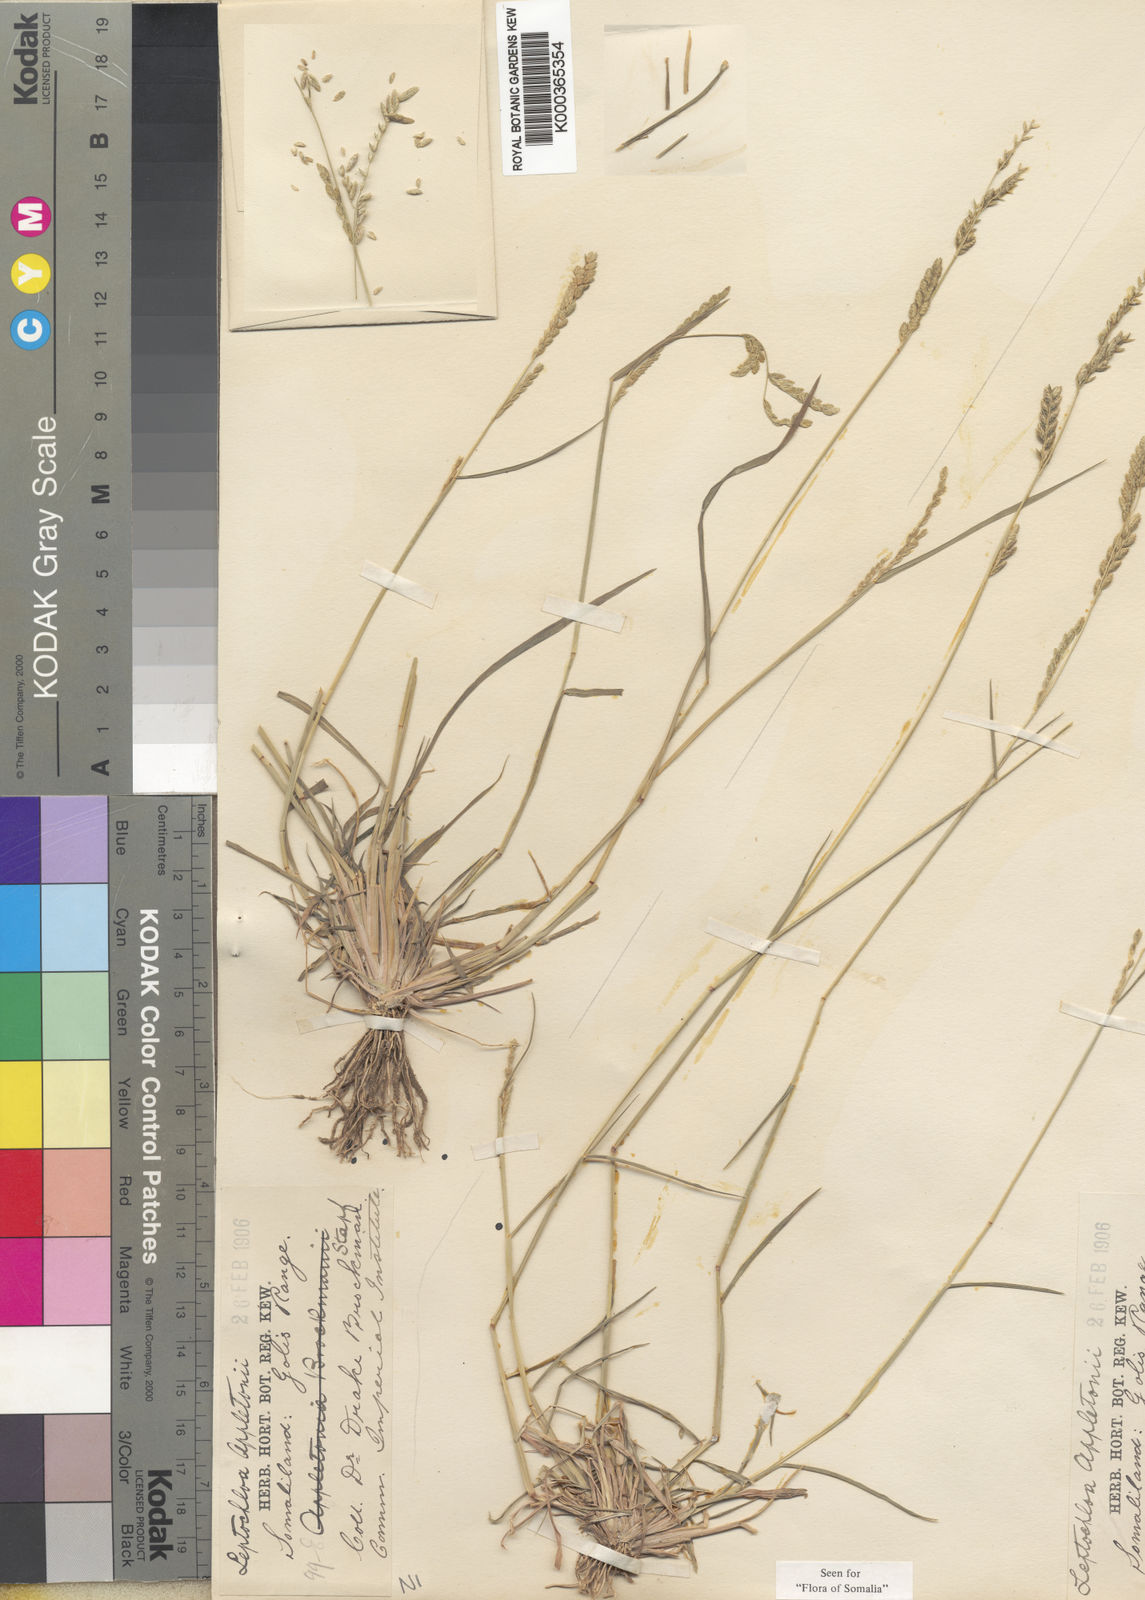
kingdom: Plantae
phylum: Tracheophyta
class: Liliopsida
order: Poales
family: Poaceae
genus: Disakisperma
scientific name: Disakisperma yemenicum
